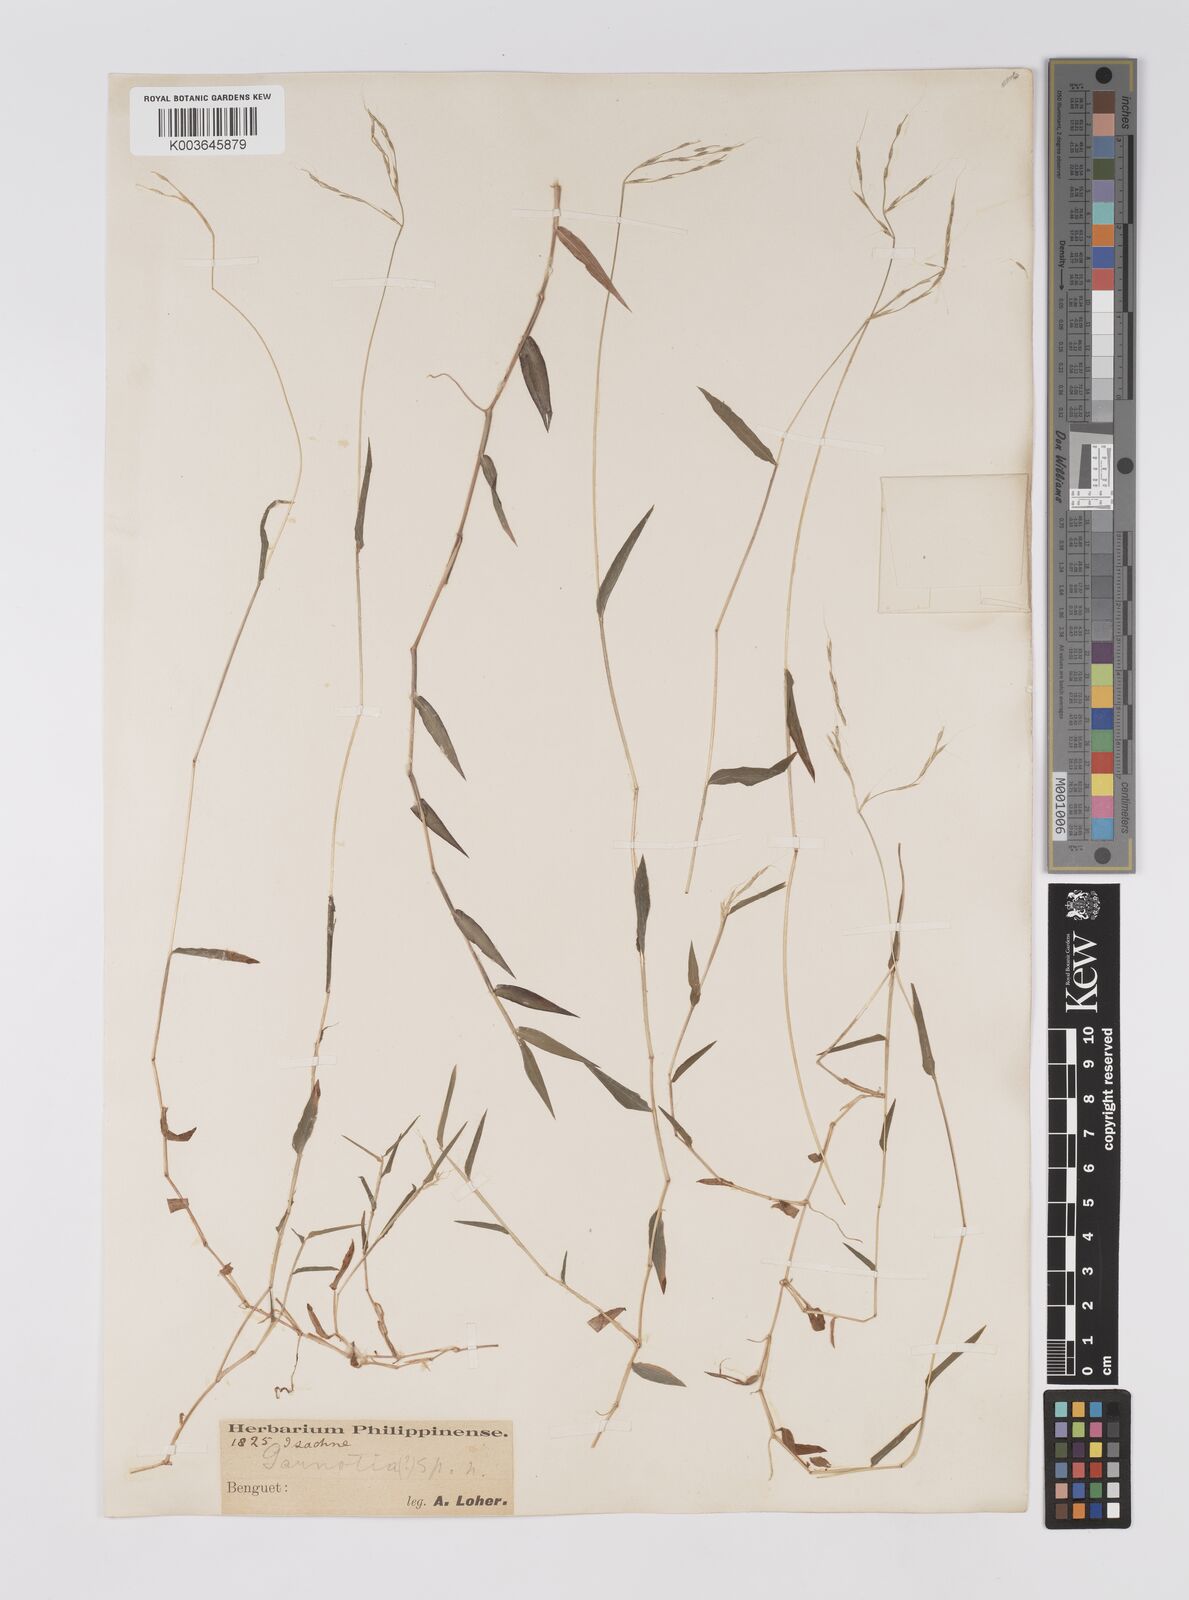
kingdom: Plantae
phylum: Tracheophyta
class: Liliopsida
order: Poales
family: Poaceae
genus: Microstegium
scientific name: Microstegium nudum
